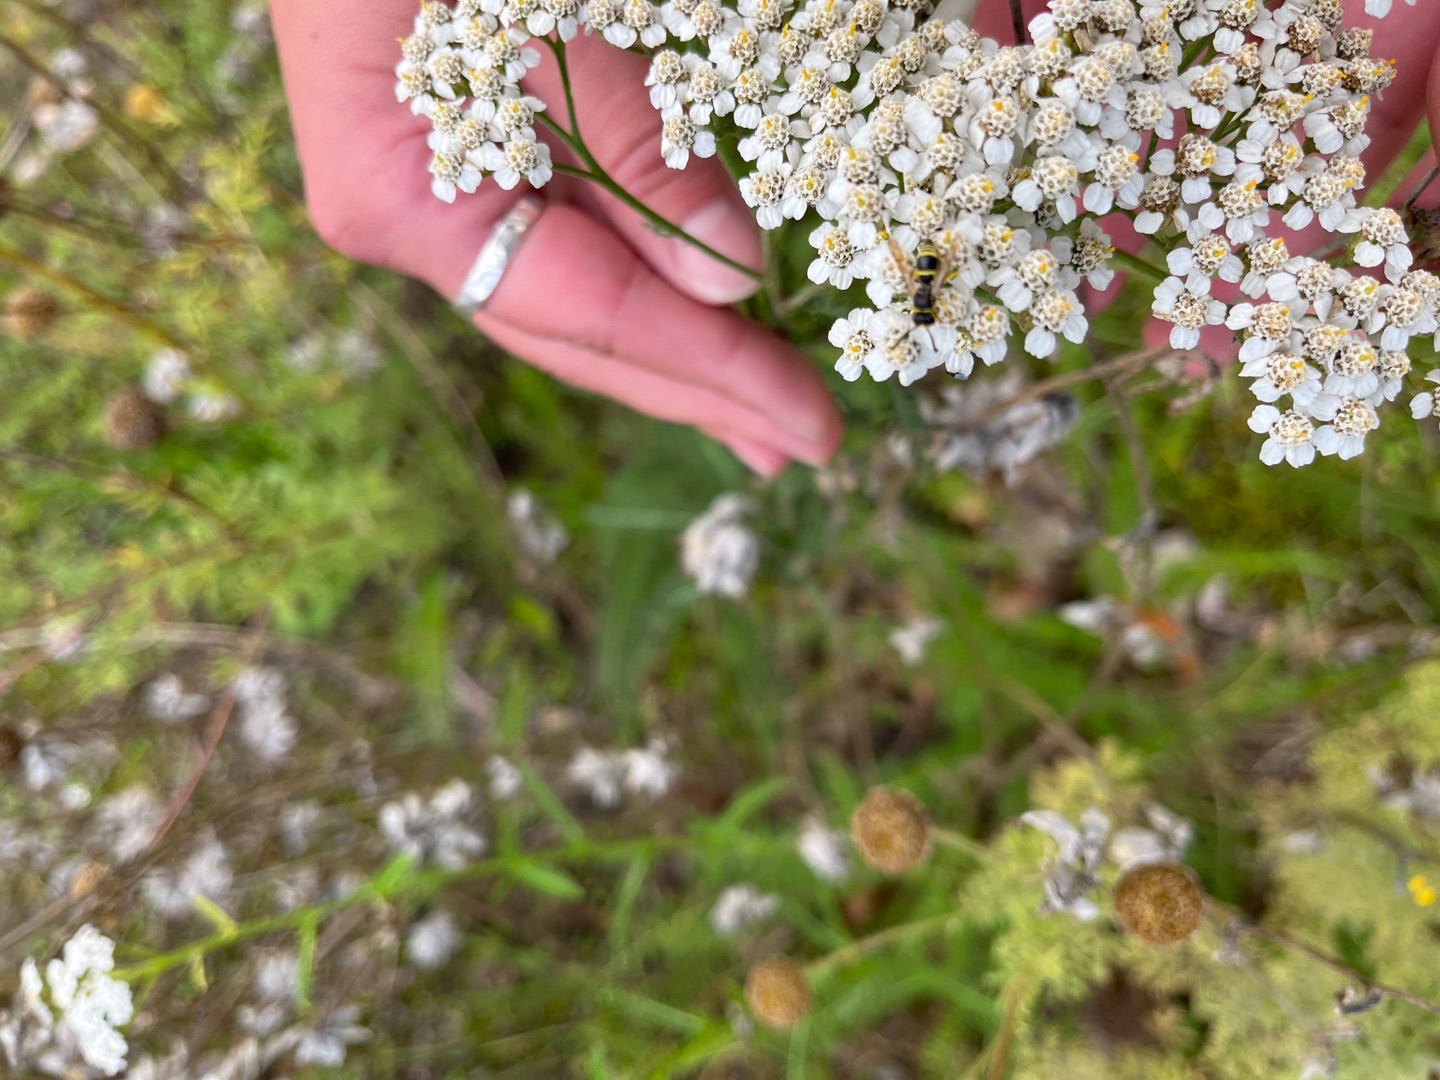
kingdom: Plantae
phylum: Tracheophyta
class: Magnoliopsida
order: Asterales
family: Asteraceae
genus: Achillea
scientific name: Achillea millefolium
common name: Almindelig røllike
